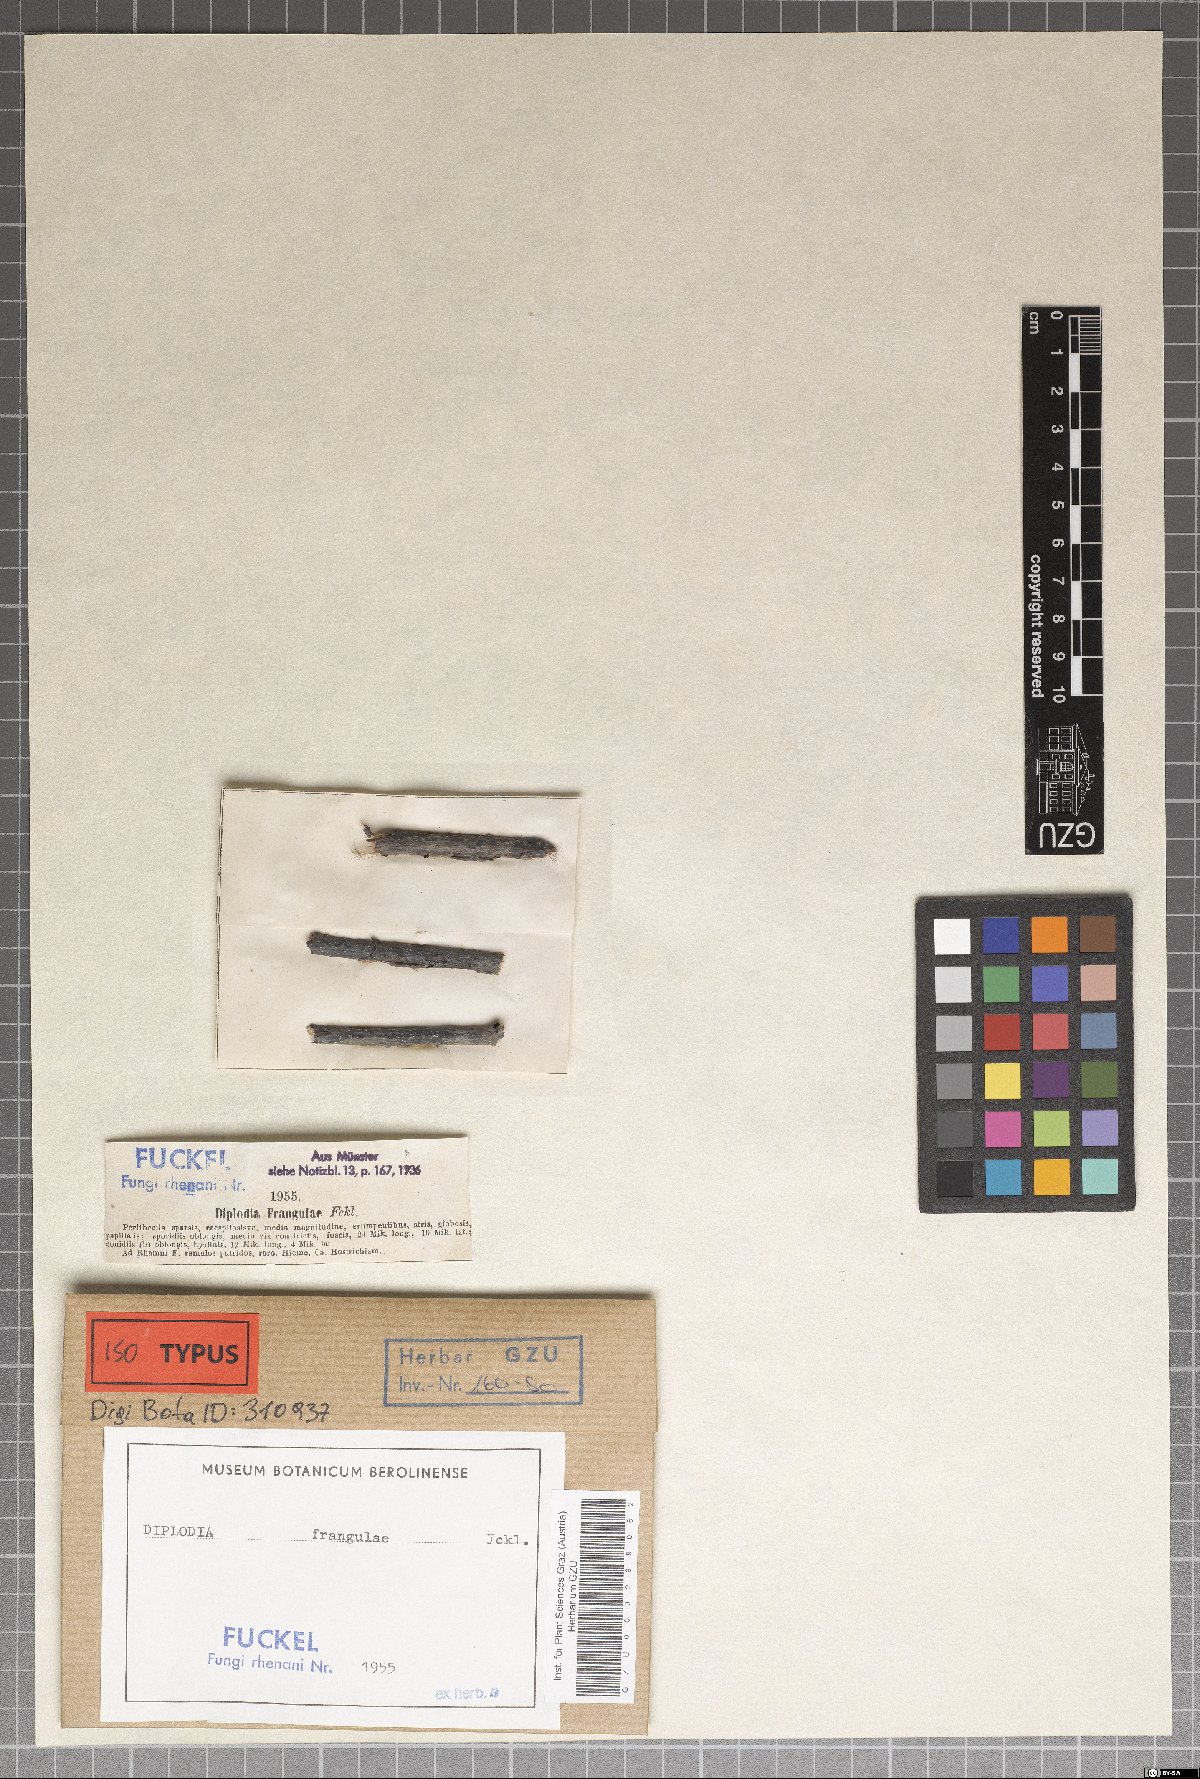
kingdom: Fungi
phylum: Ascomycota
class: Dothideomycetes
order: Pleosporales
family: Cucurbitariaceae
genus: Neocucurbitaria
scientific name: Neocucurbitaria rhamni
